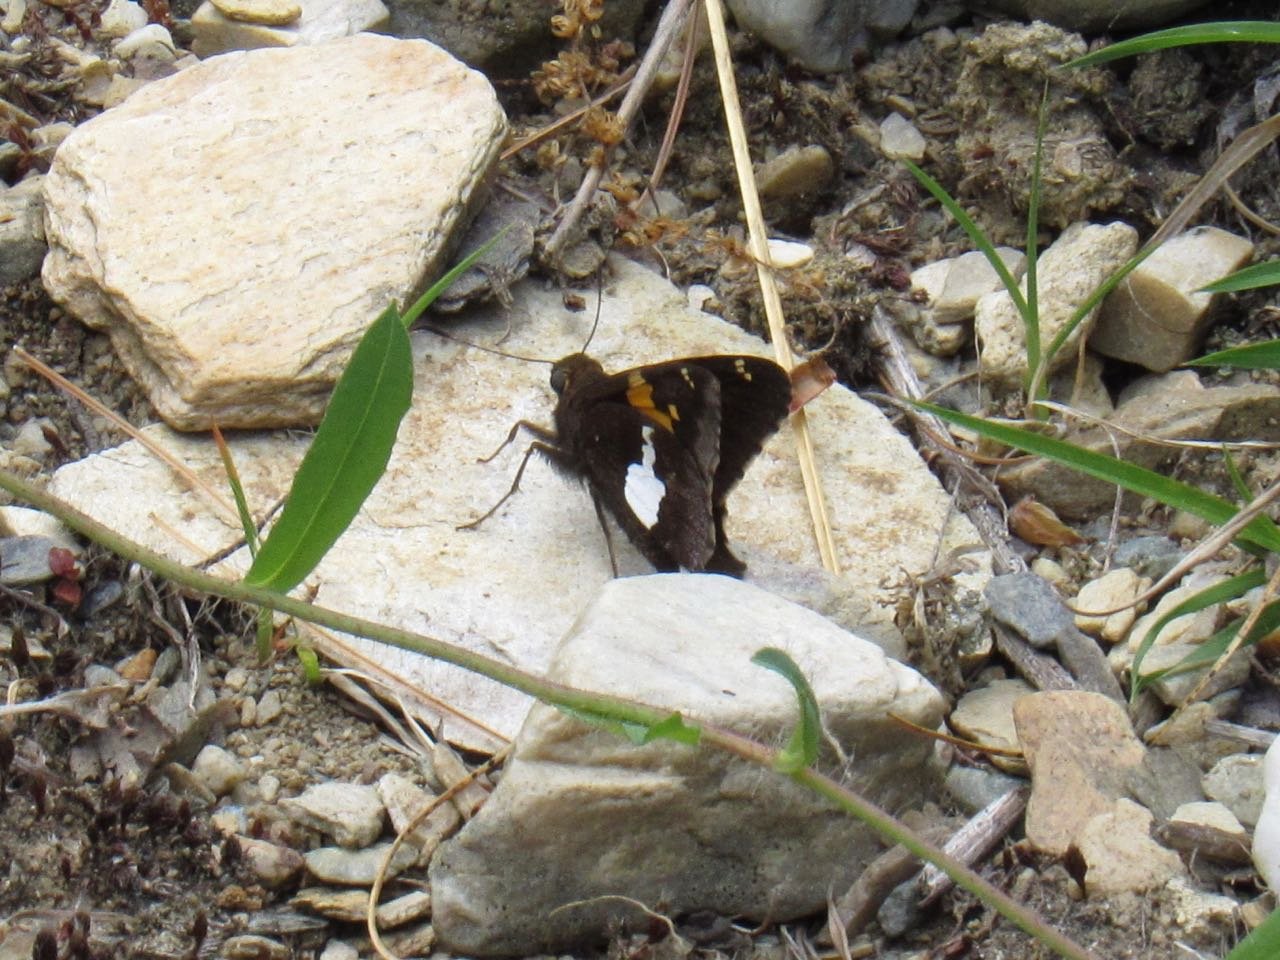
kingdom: Animalia
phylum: Arthropoda
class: Insecta
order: Lepidoptera
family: Hesperiidae
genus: Epargyreus
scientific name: Epargyreus clarus
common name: Silver-spotted Skipper
